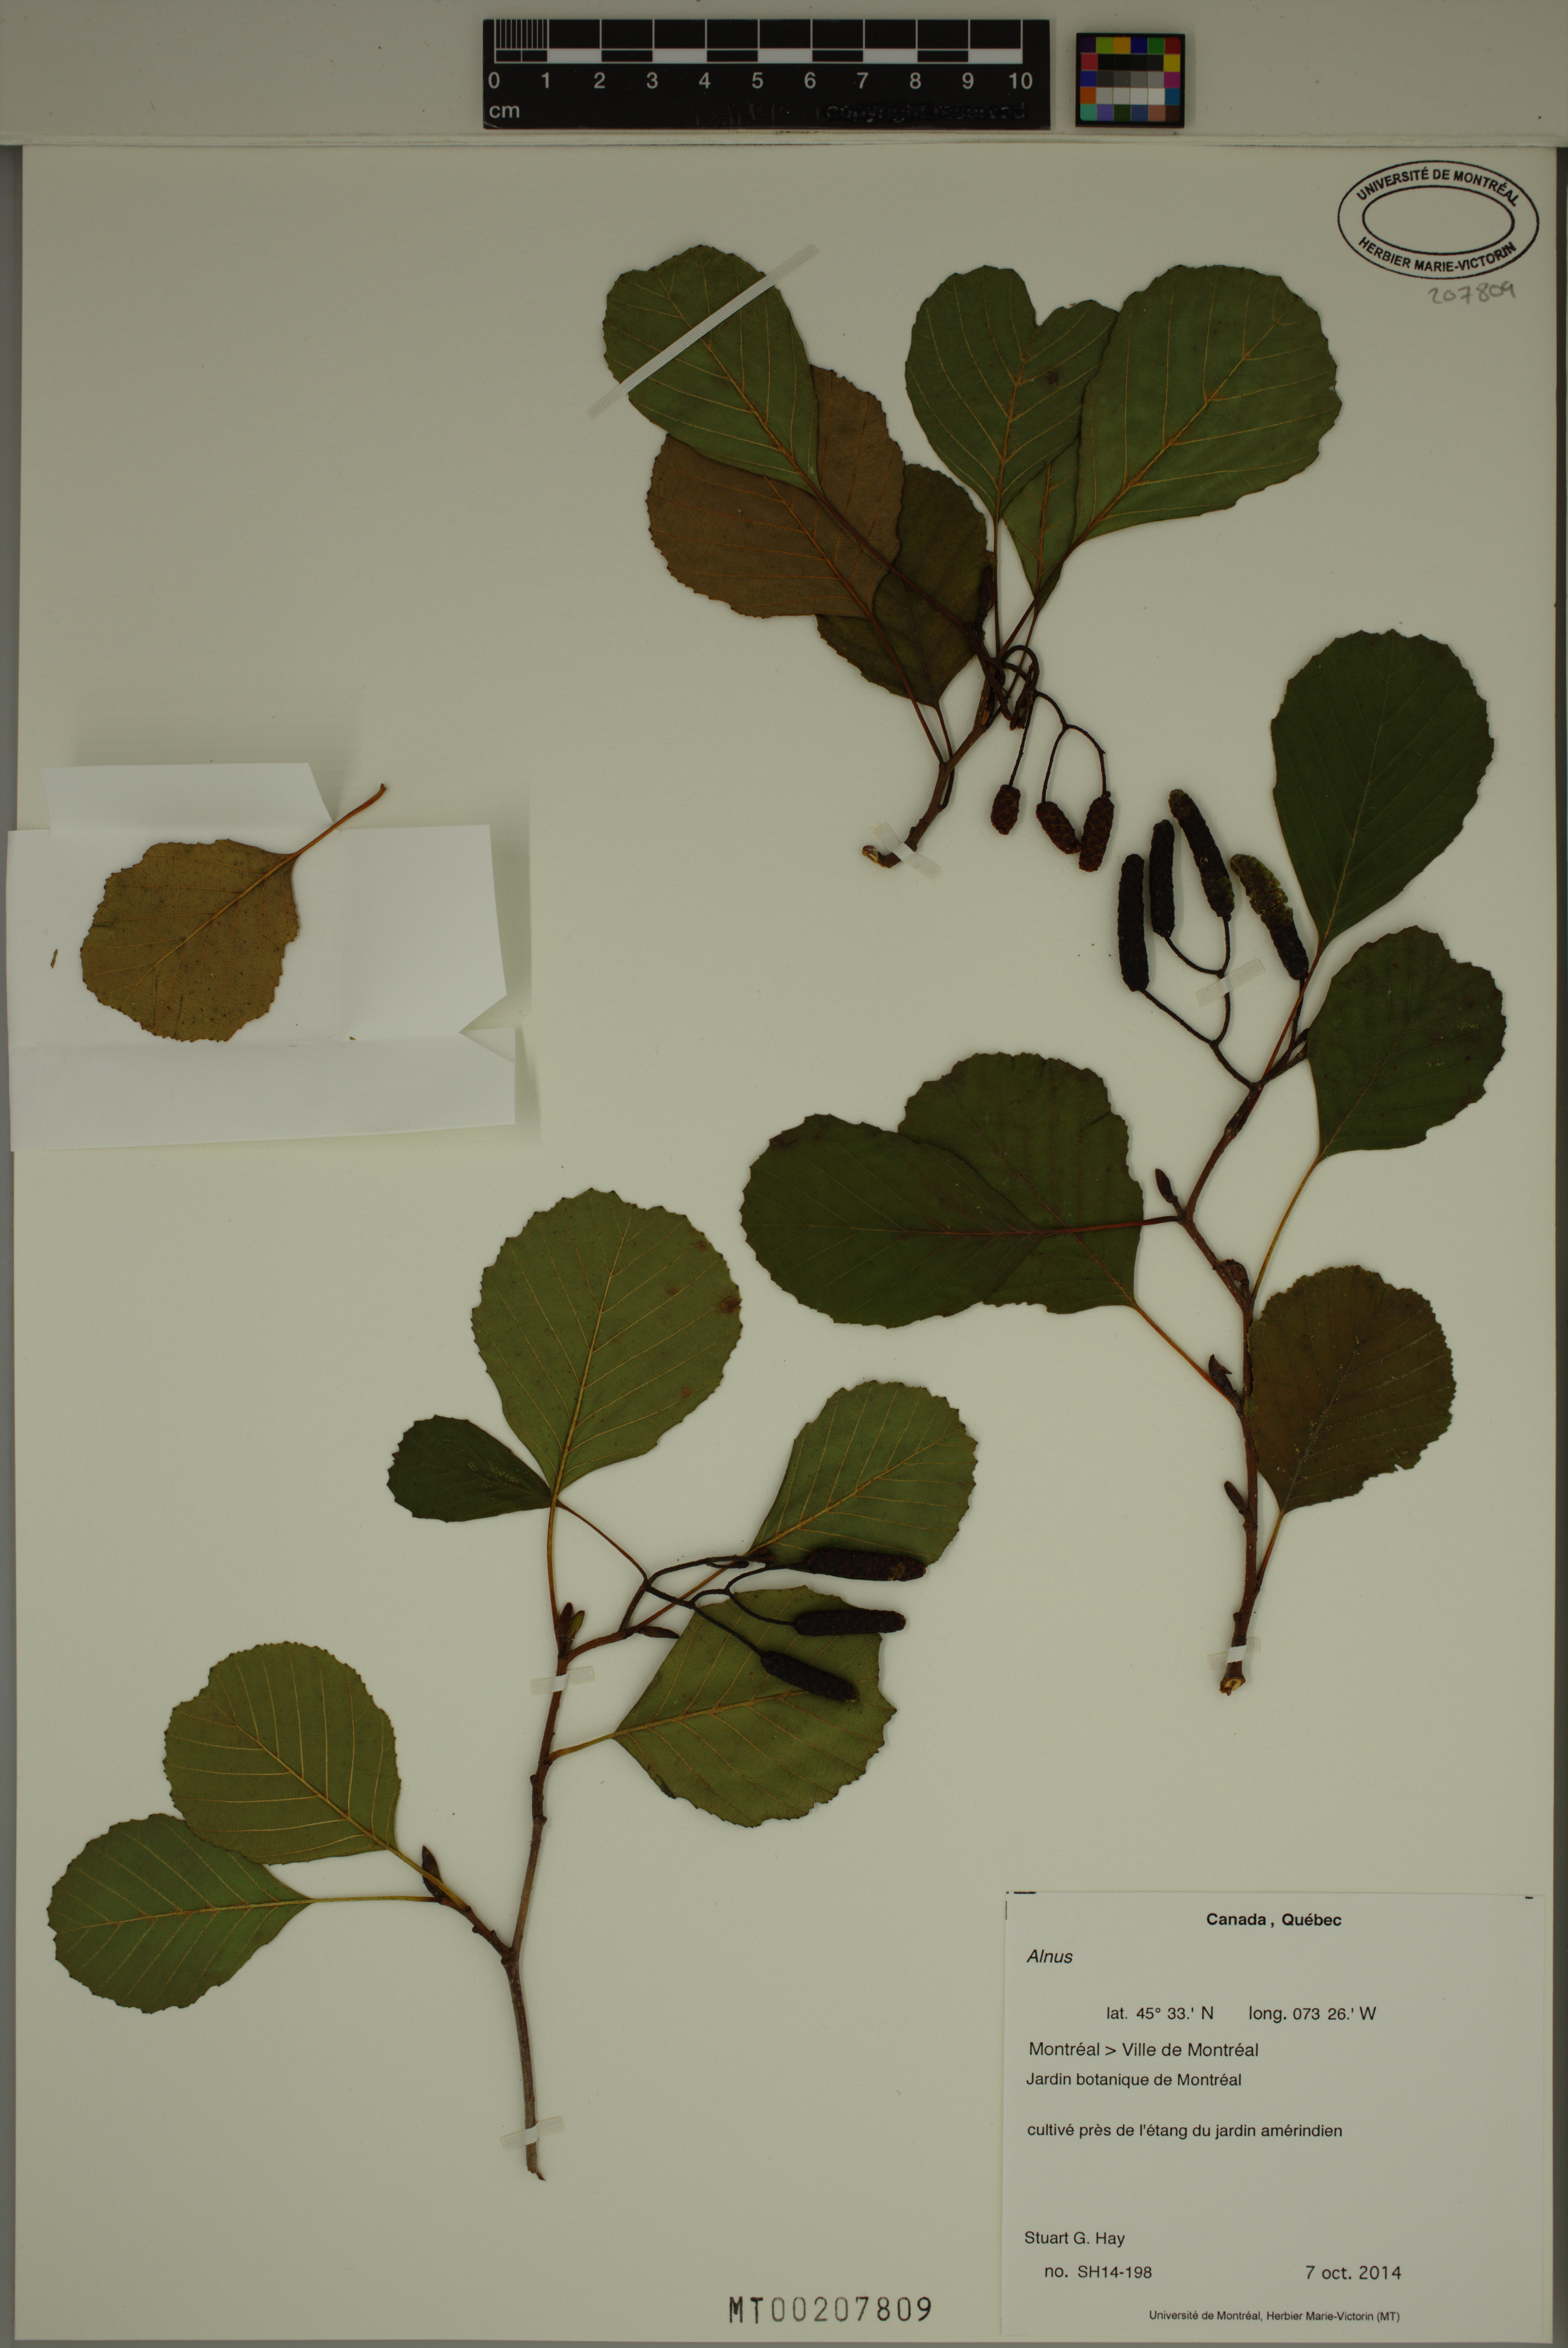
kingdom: Plantae
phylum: Tracheophyta
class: Magnoliopsida
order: Fagales
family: Betulaceae
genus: Alnus
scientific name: Alnus
